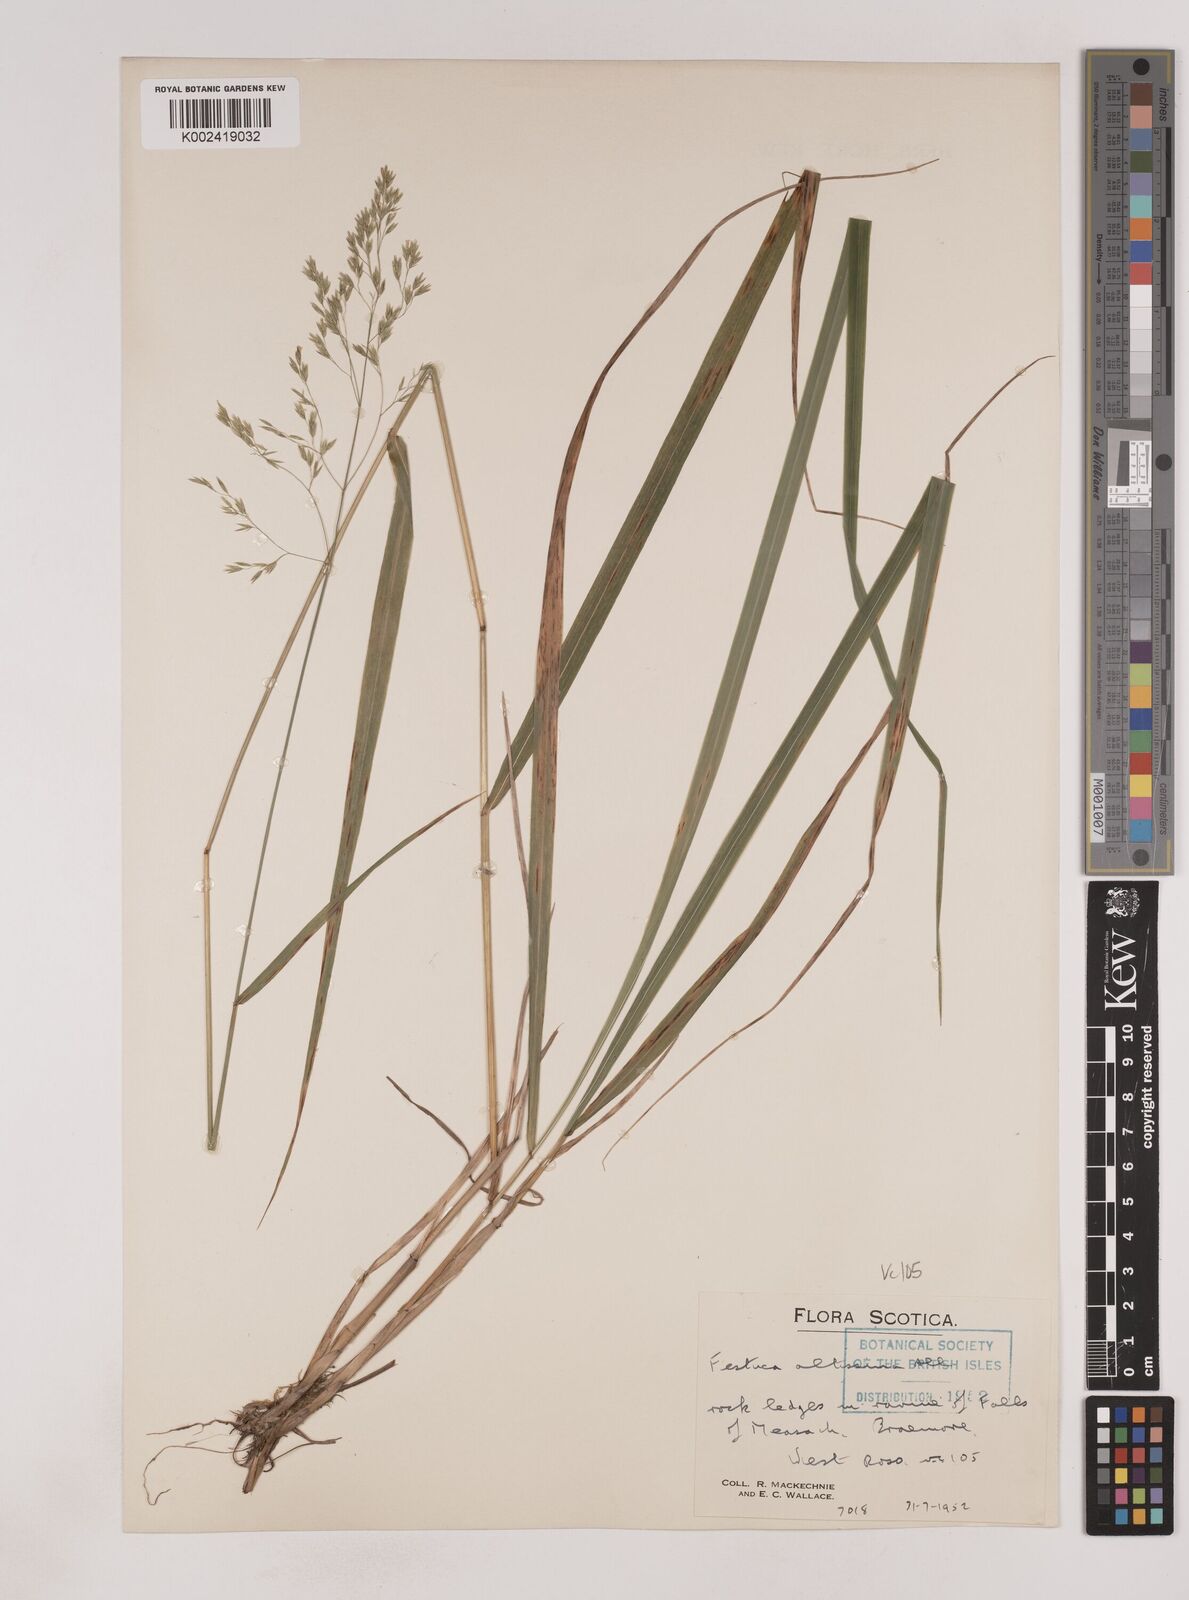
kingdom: Plantae
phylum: Tracheophyta
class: Liliopsida
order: Poales
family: Poaceae
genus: Festuca
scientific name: Festuca drymeja
